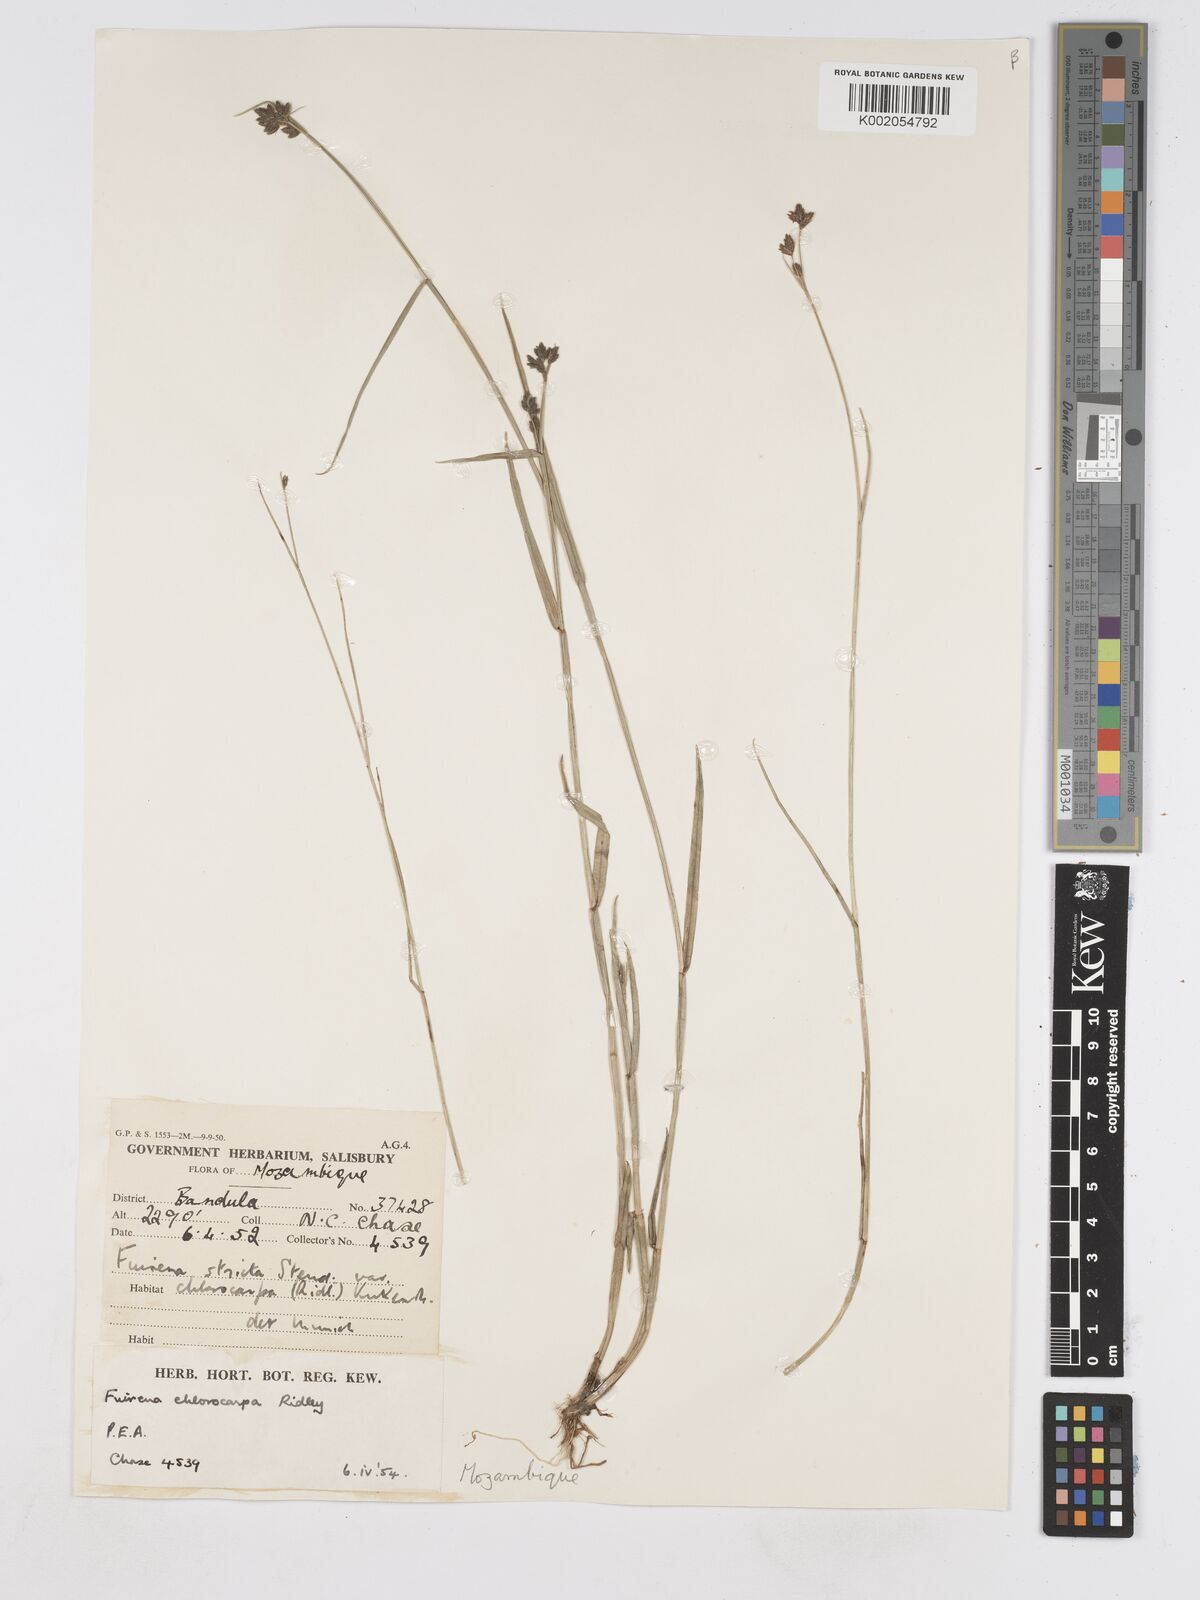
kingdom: Plantae
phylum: Tracheophyta
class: Liliopsida
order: Poales
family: Cyperaceae
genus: Fuirena
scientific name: Fuirena stricta
